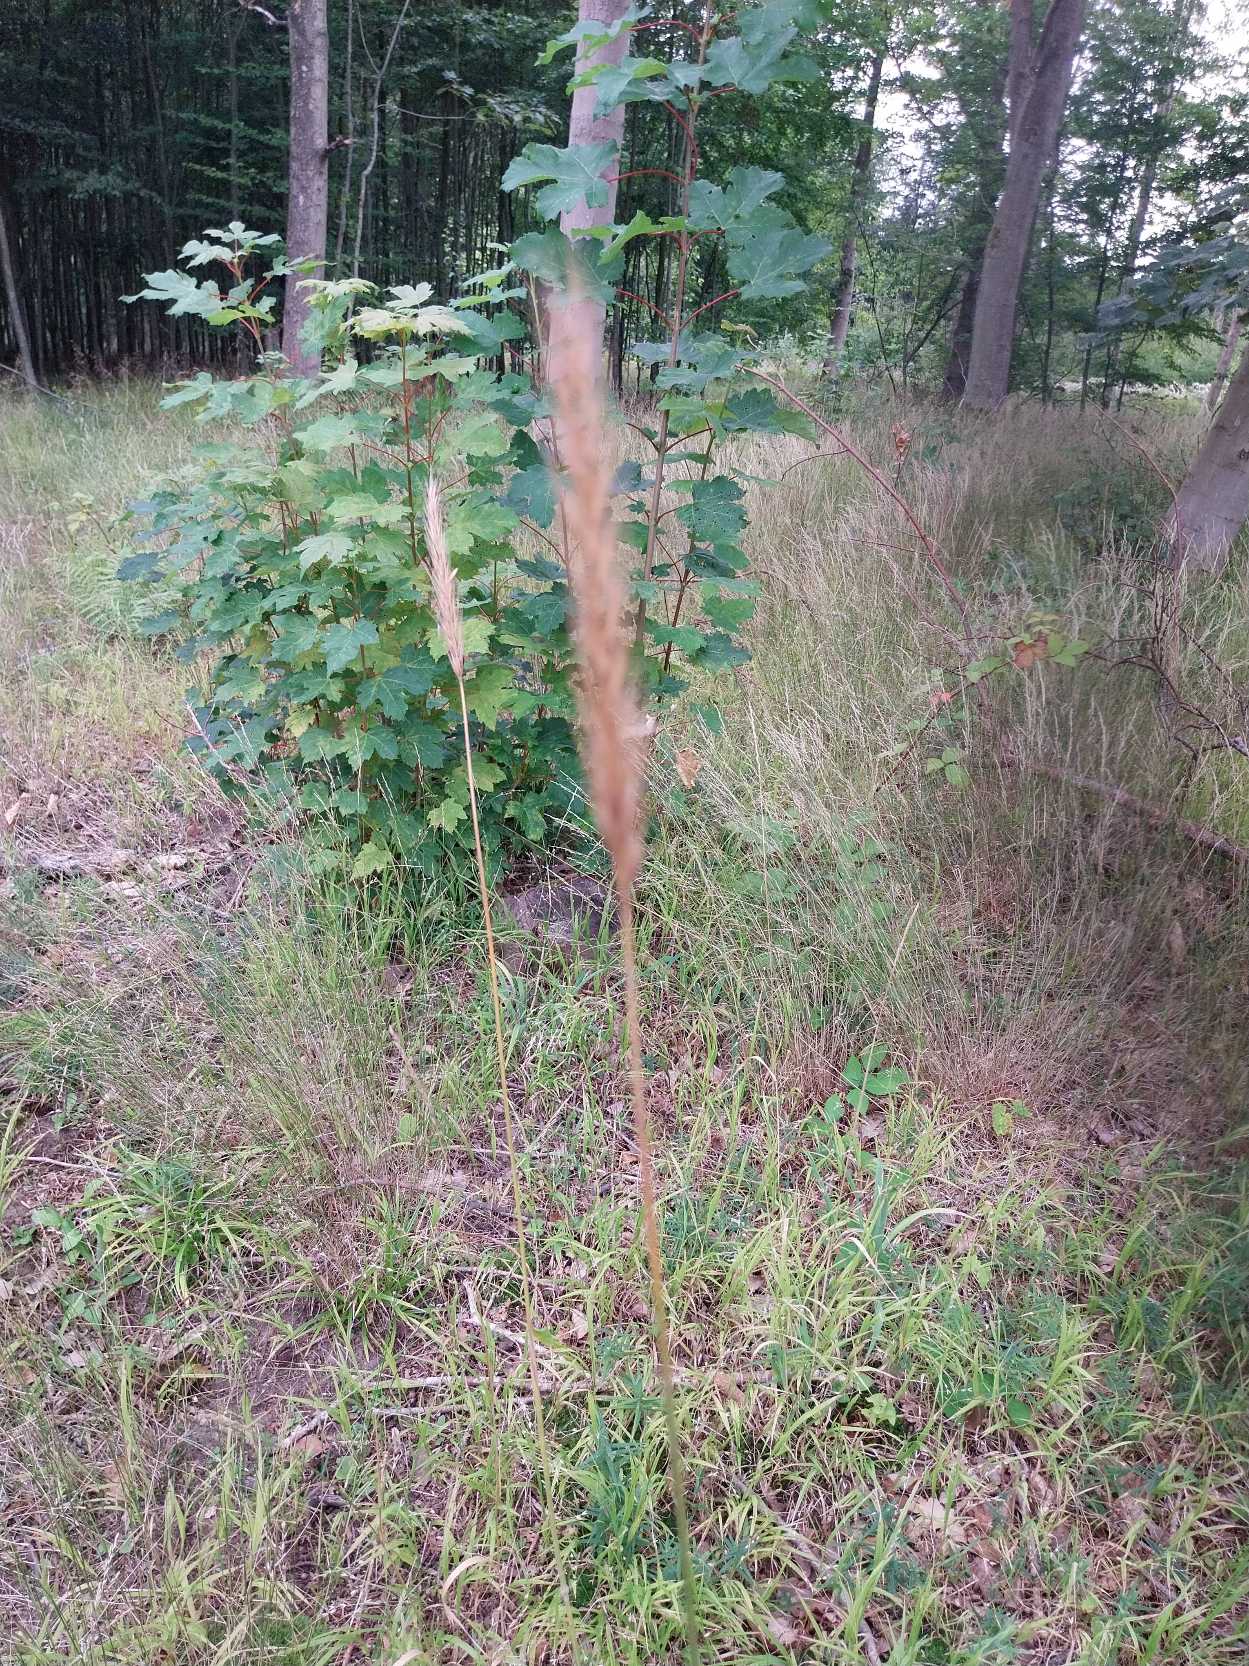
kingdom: Plantae
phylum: Tracheophyta
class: Liliopsida
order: Poales
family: Poaceae
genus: Hordelymus
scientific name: Hordelymus europaeus
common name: Skovbyg
